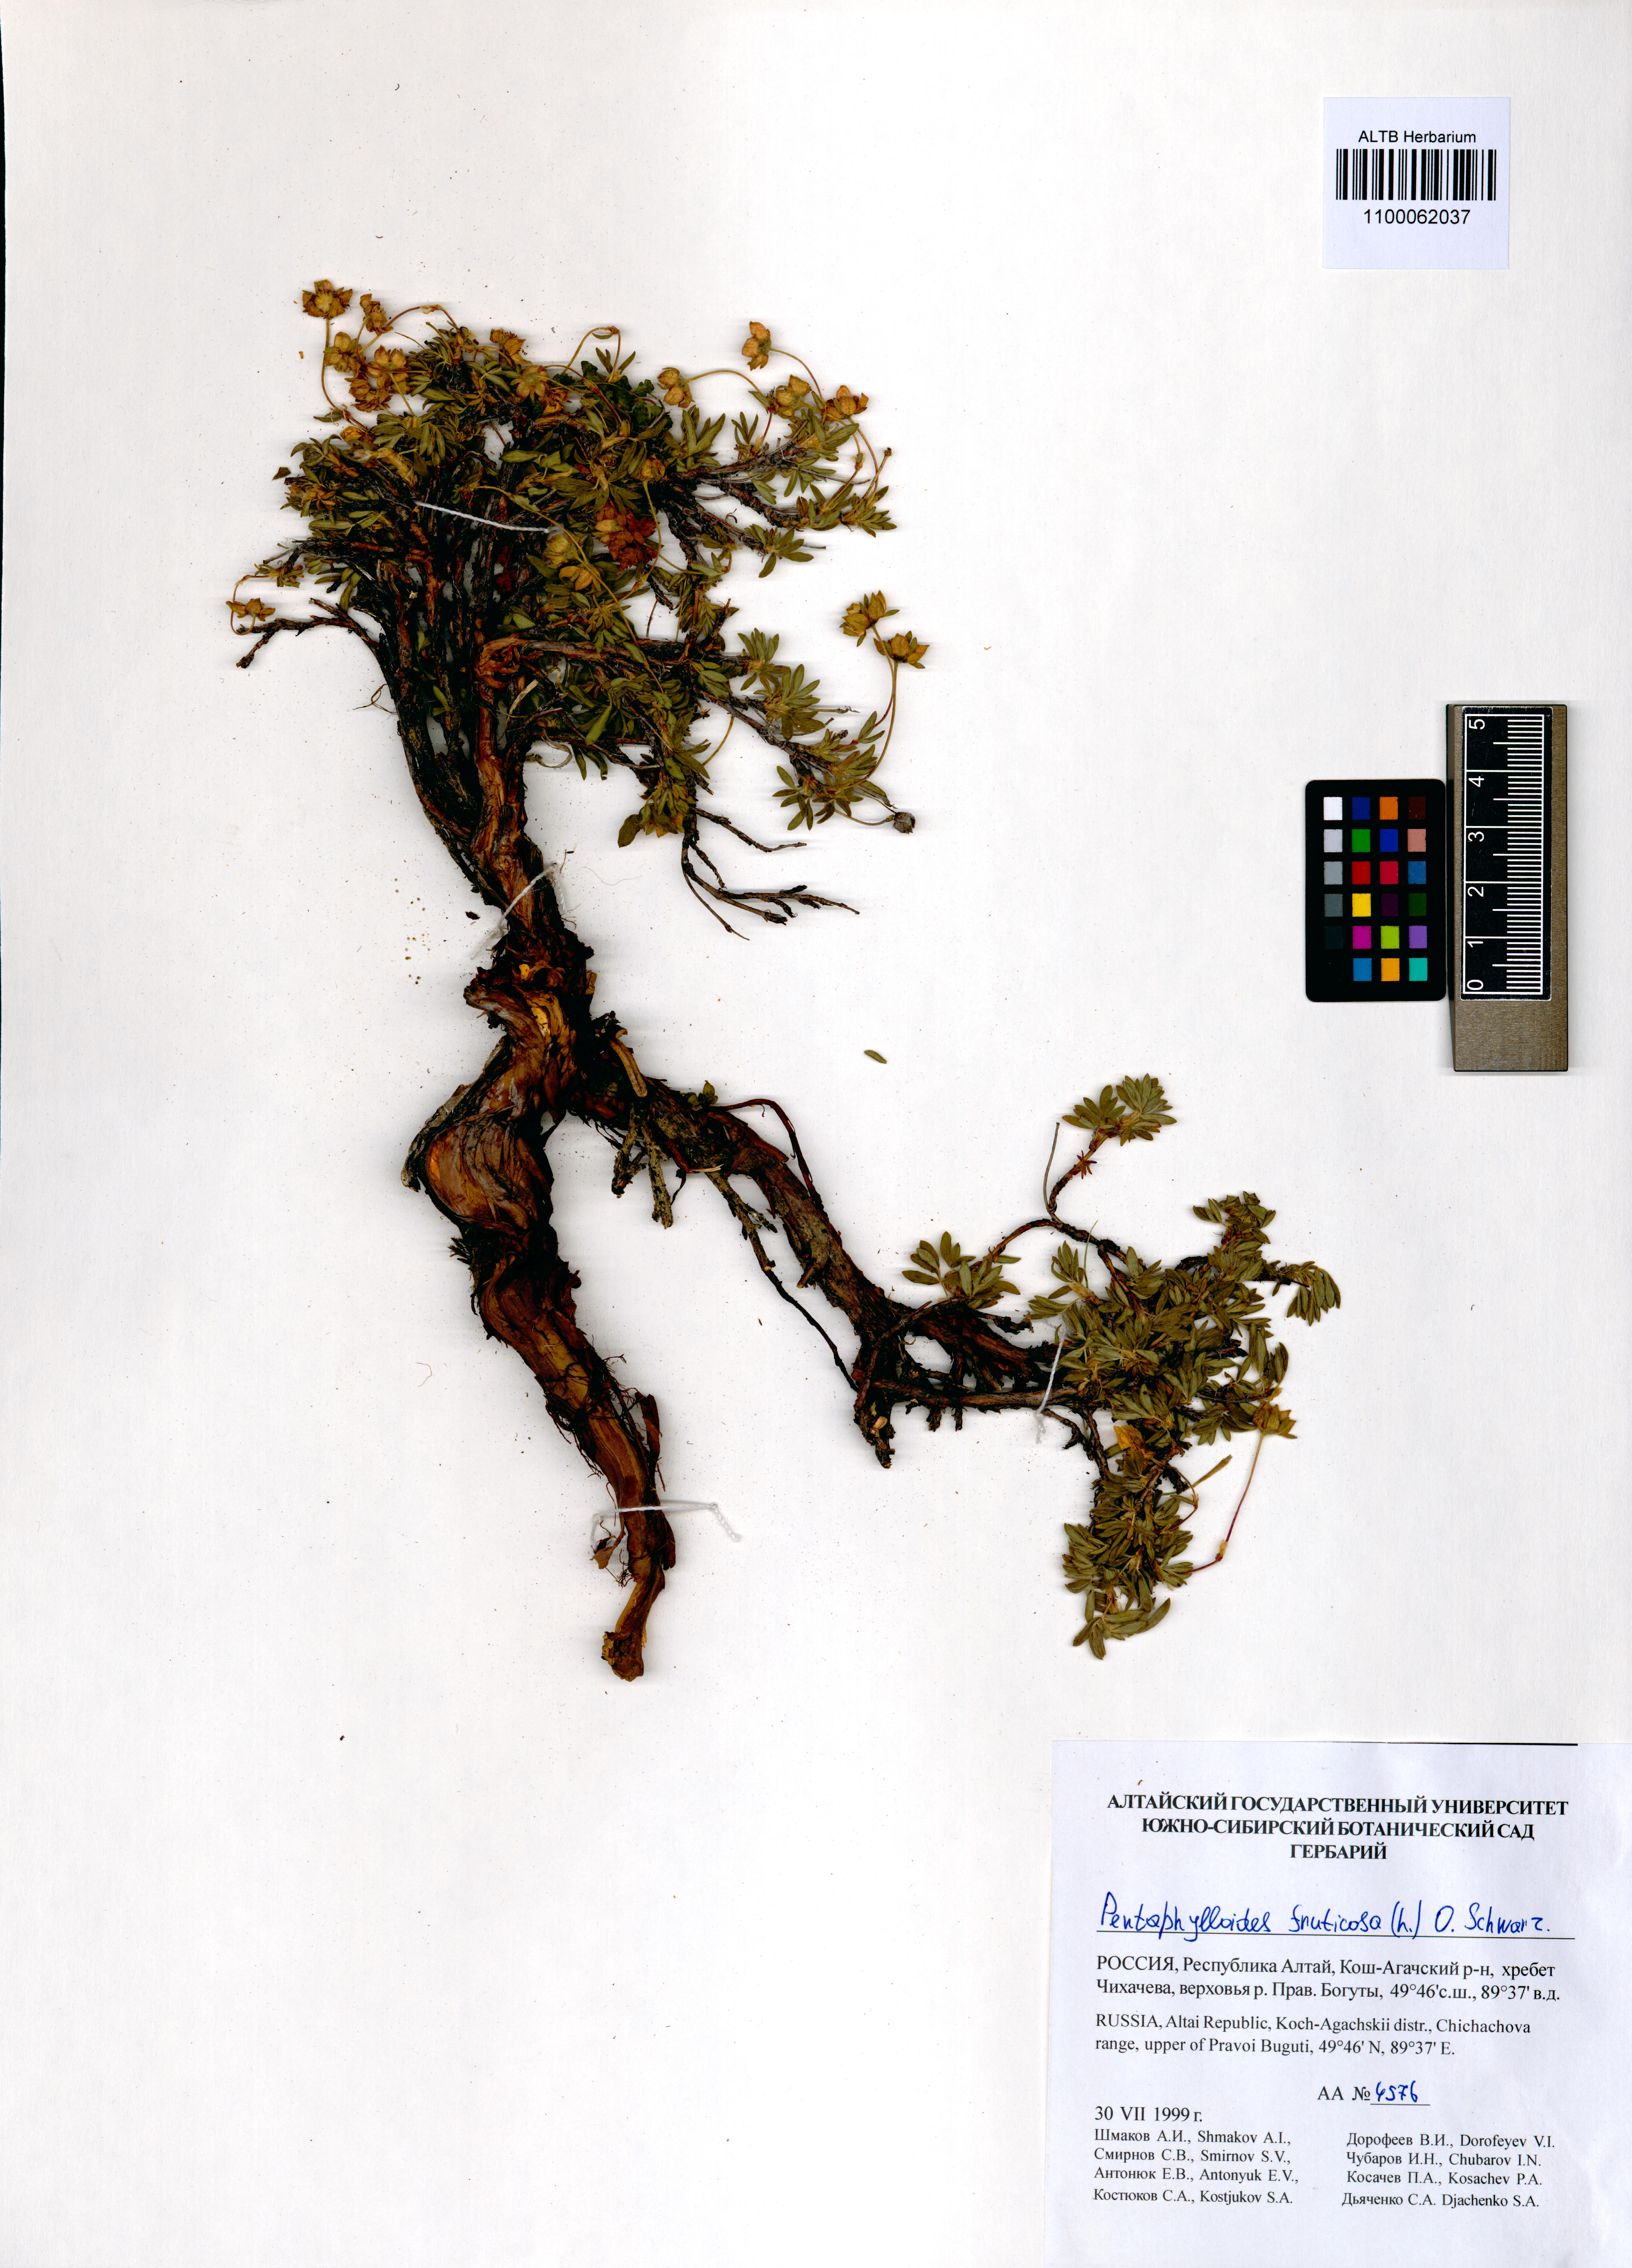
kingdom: Plantae
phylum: Tracheophyta
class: Magnoliopsida
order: Rosales
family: Rosaceae
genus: Dasiphora
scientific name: Dasiphora fruticosa
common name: Shrubby cinquefoil
